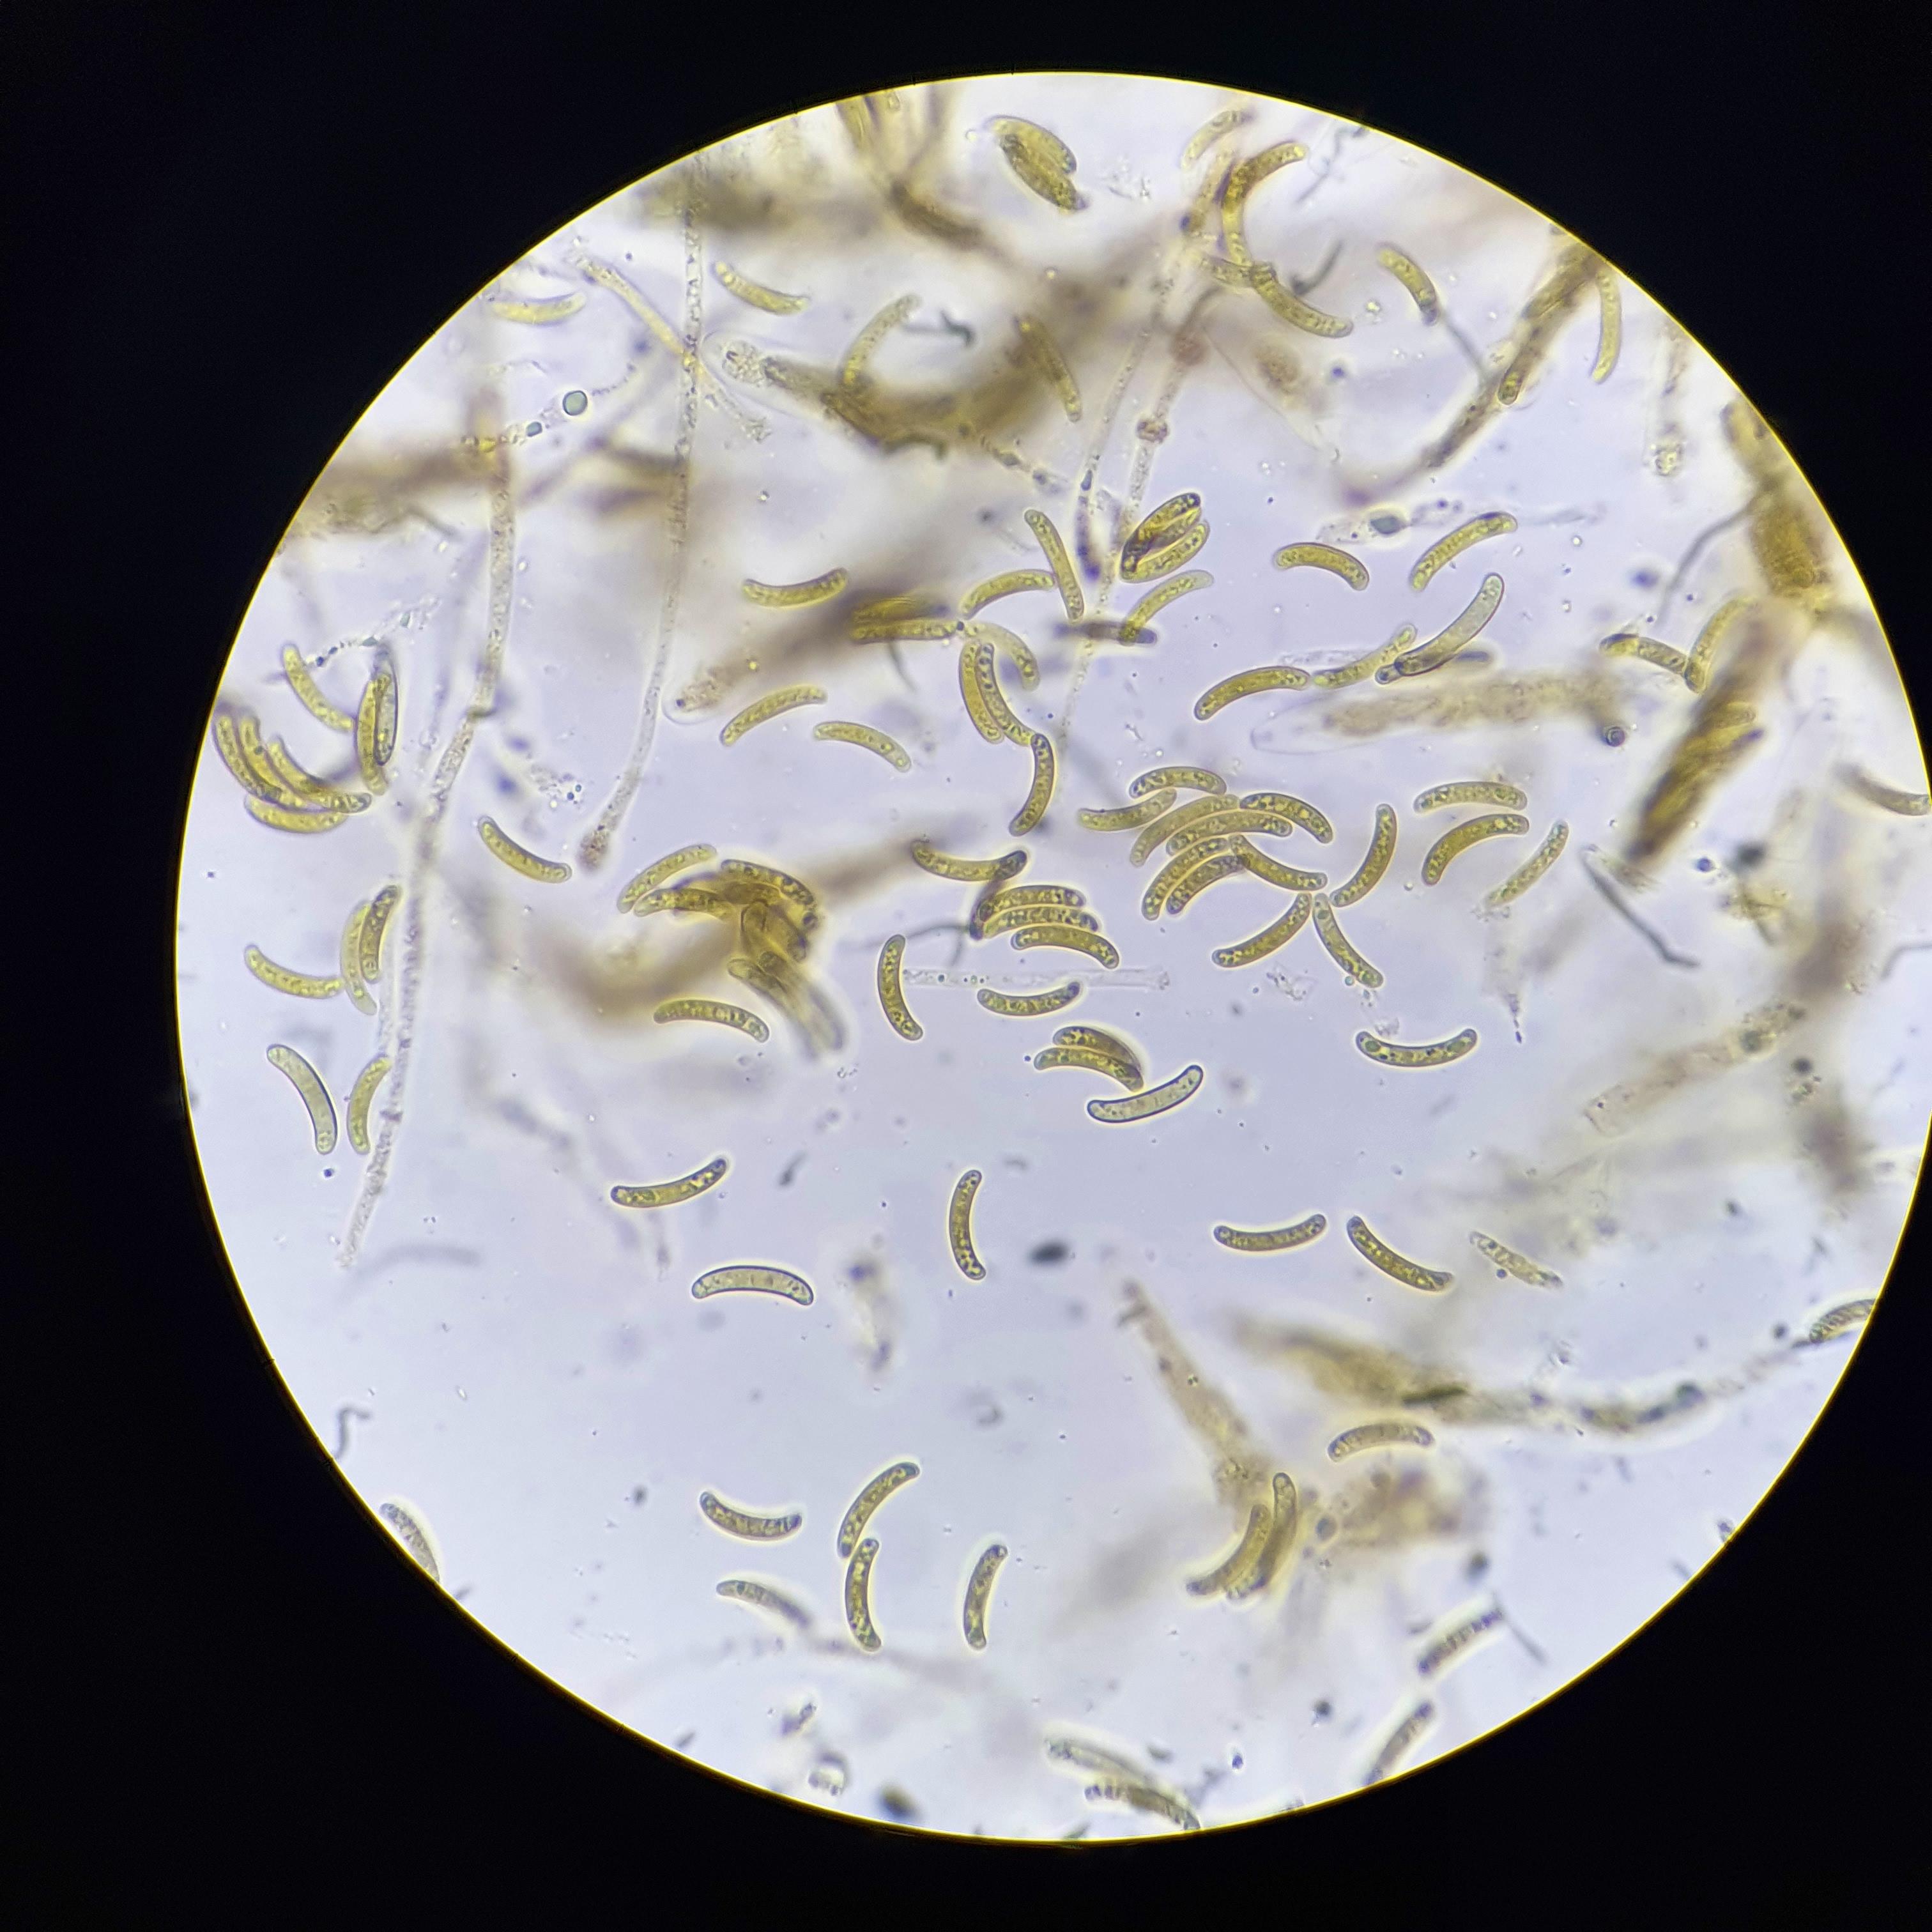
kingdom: Fungi
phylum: Ascomycota
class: Sordariomycetes
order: Xylariales
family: Diatrypaceae
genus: Cryptosphaeria
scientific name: Cryptosphaeria eunomia
